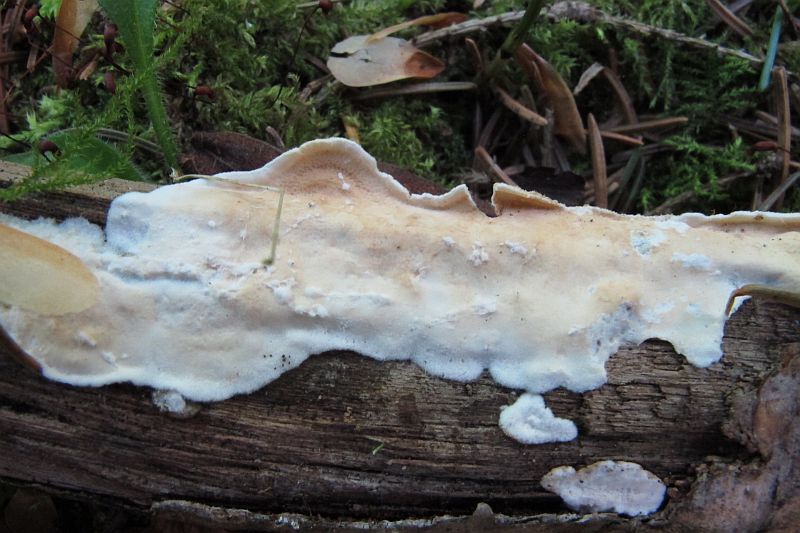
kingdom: Fungi
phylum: Basidiomycota
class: Agaricomycetes
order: Polyporales
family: Irpicaceae
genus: Byssomerulius
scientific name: Byssomerulius corium
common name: læder-åresvamp
